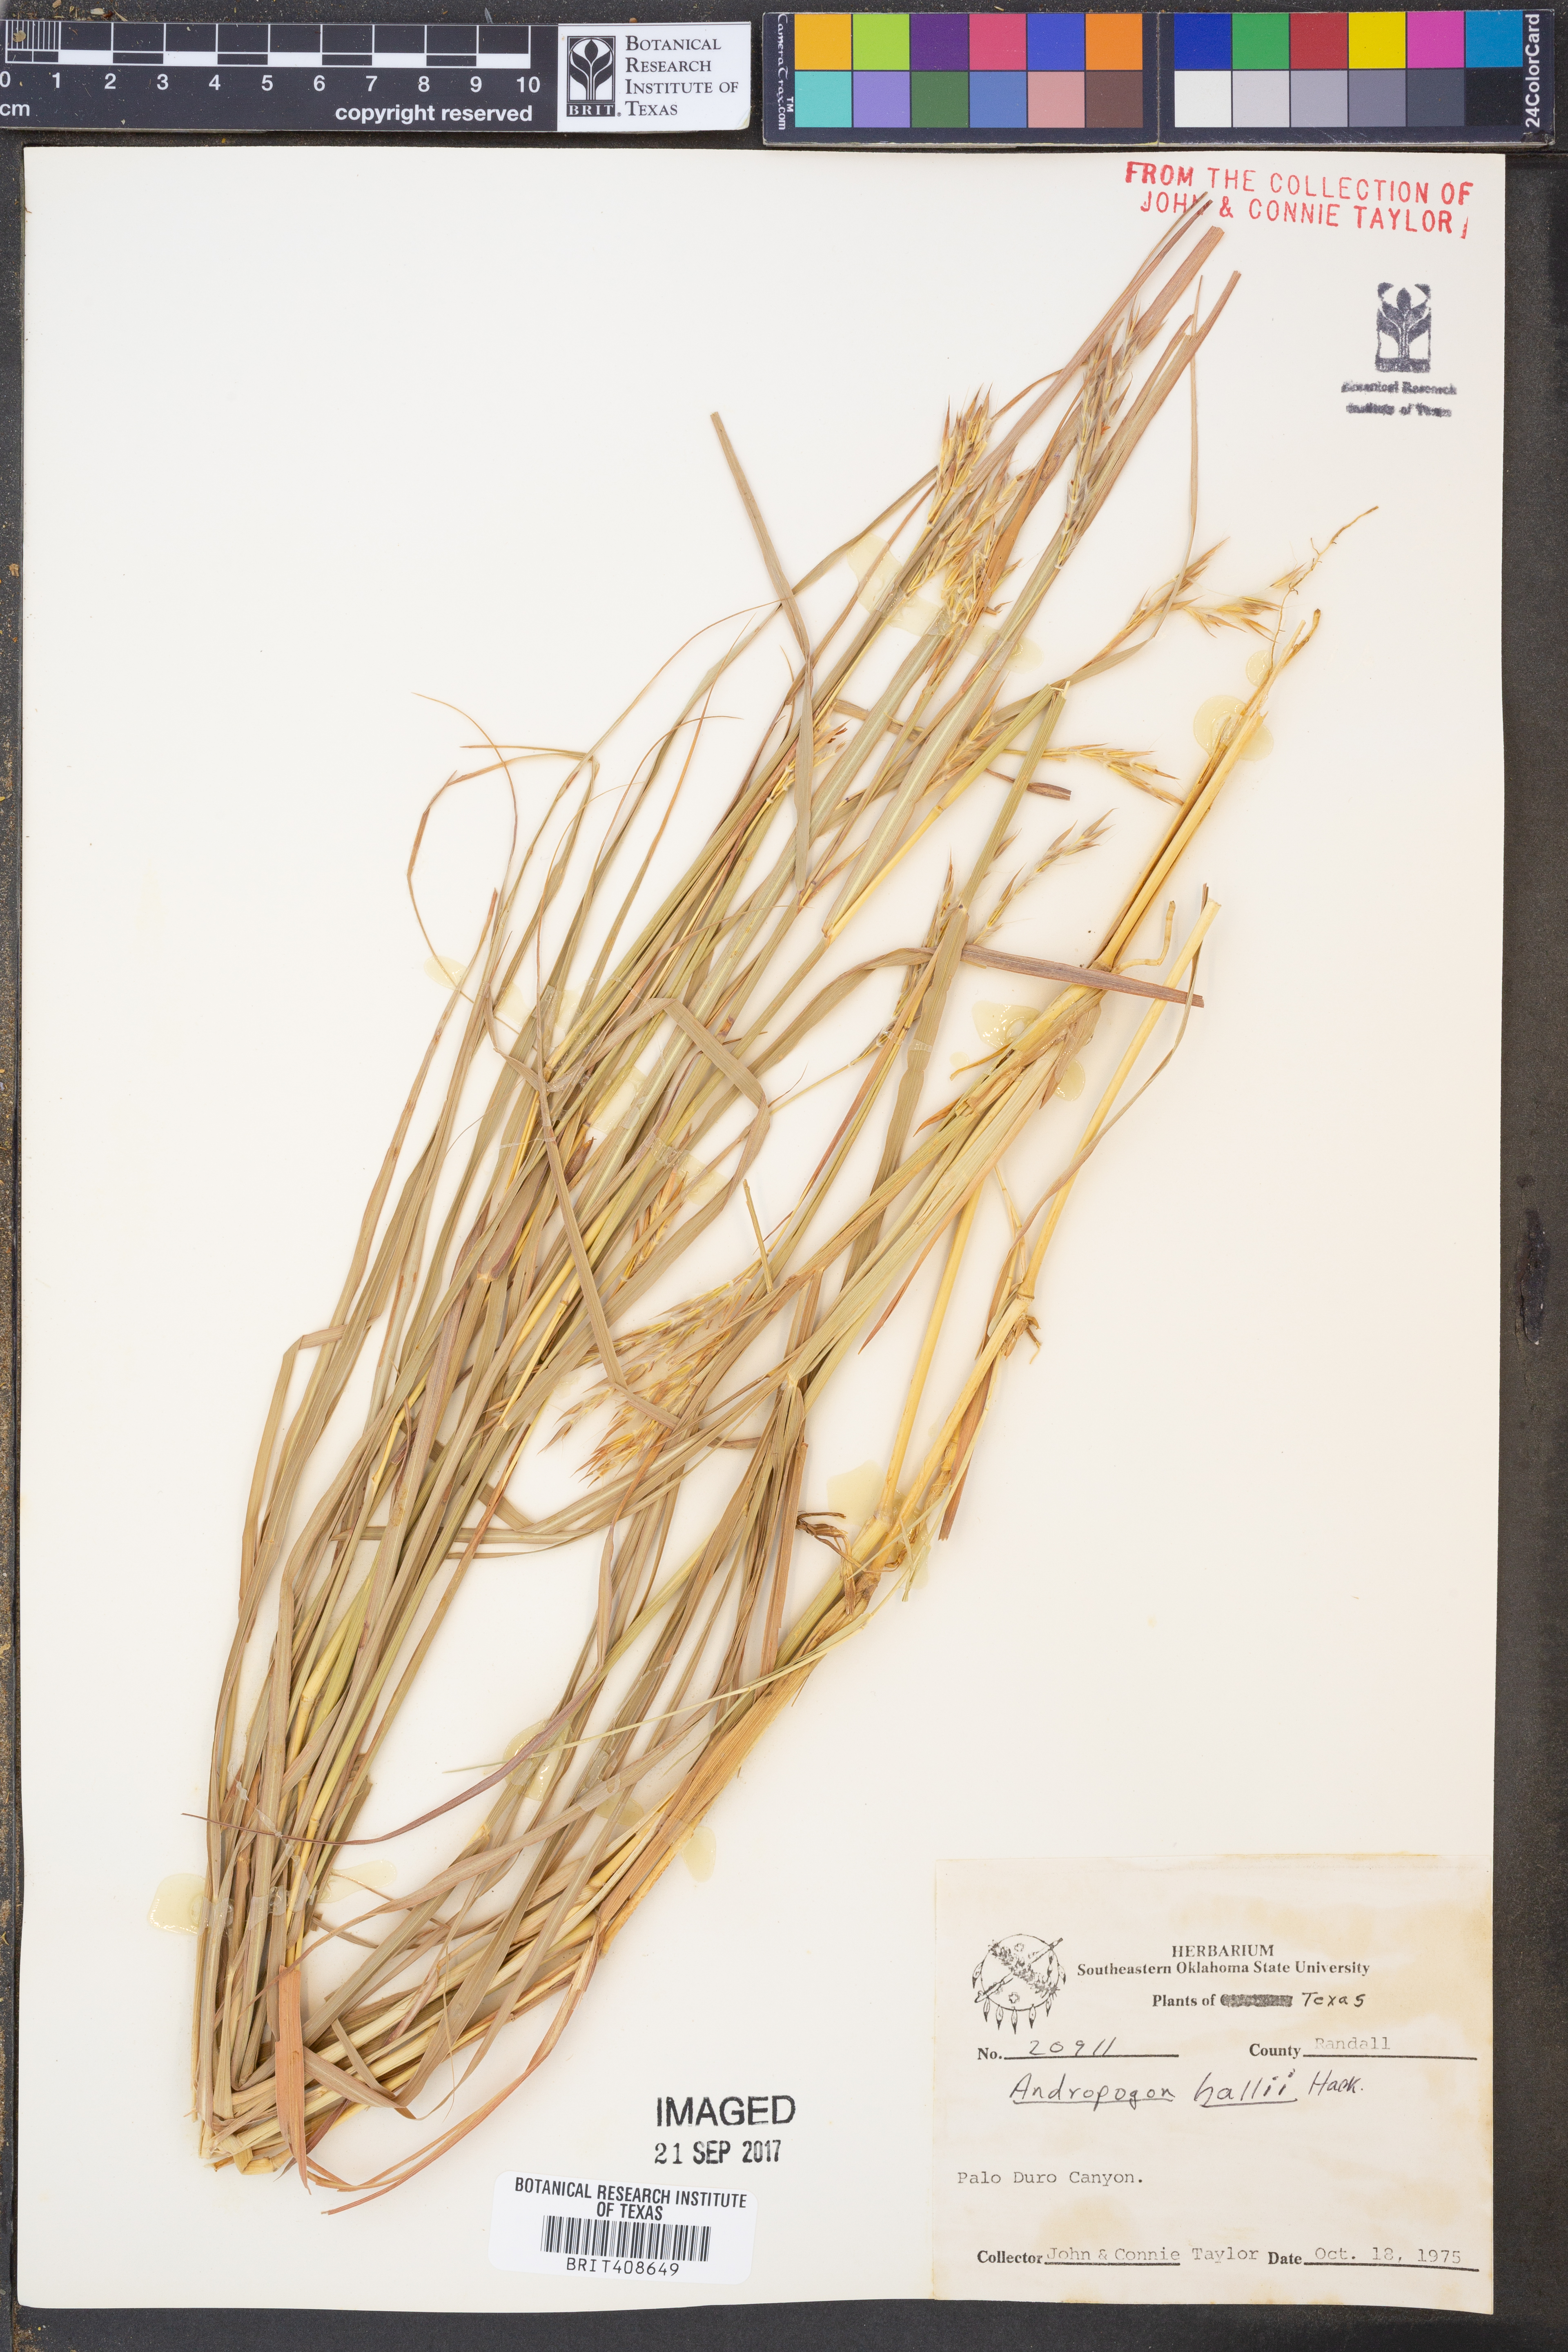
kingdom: Plantae
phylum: Tracheophyta
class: Liliopsida
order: Poales
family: Poaceae
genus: Andropogon
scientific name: Andropogon hallii
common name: Sand bluestem
